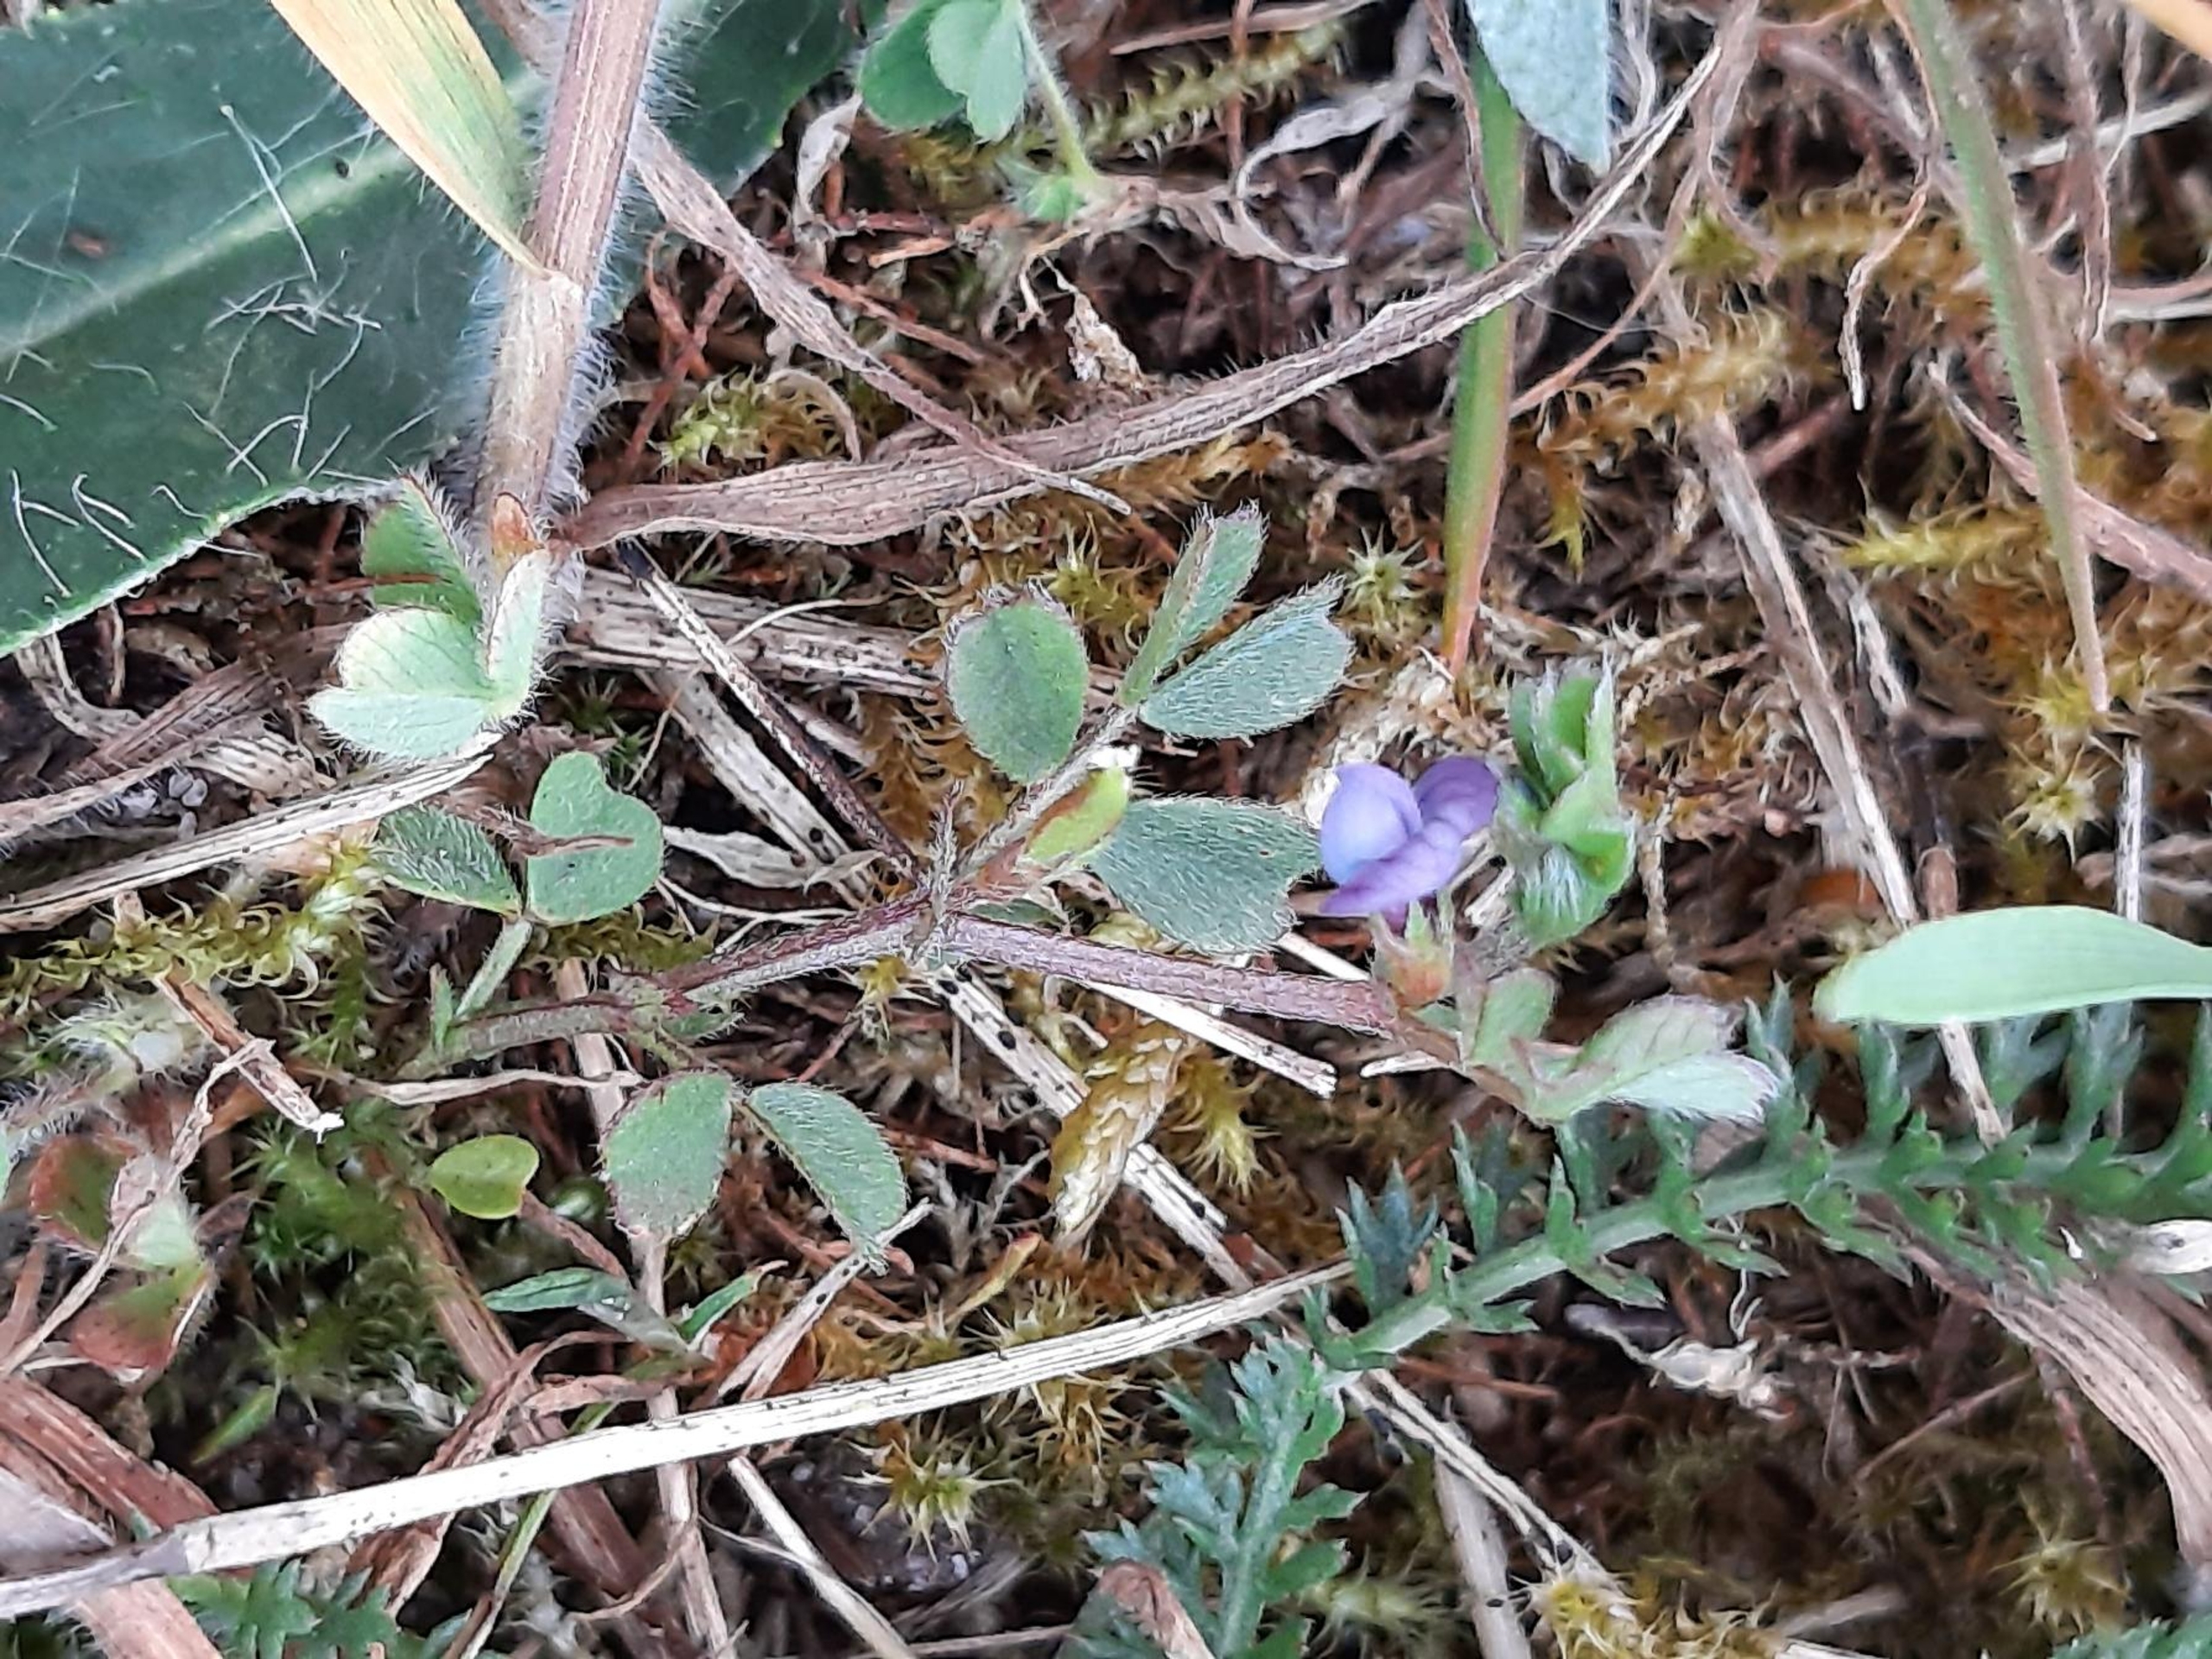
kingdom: Plantae
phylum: Tracheophyta
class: Magnoliopsida
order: Fabales
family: Fabaceae
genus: Vicia
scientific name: Vicia lathyroides
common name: Vår-vikke
